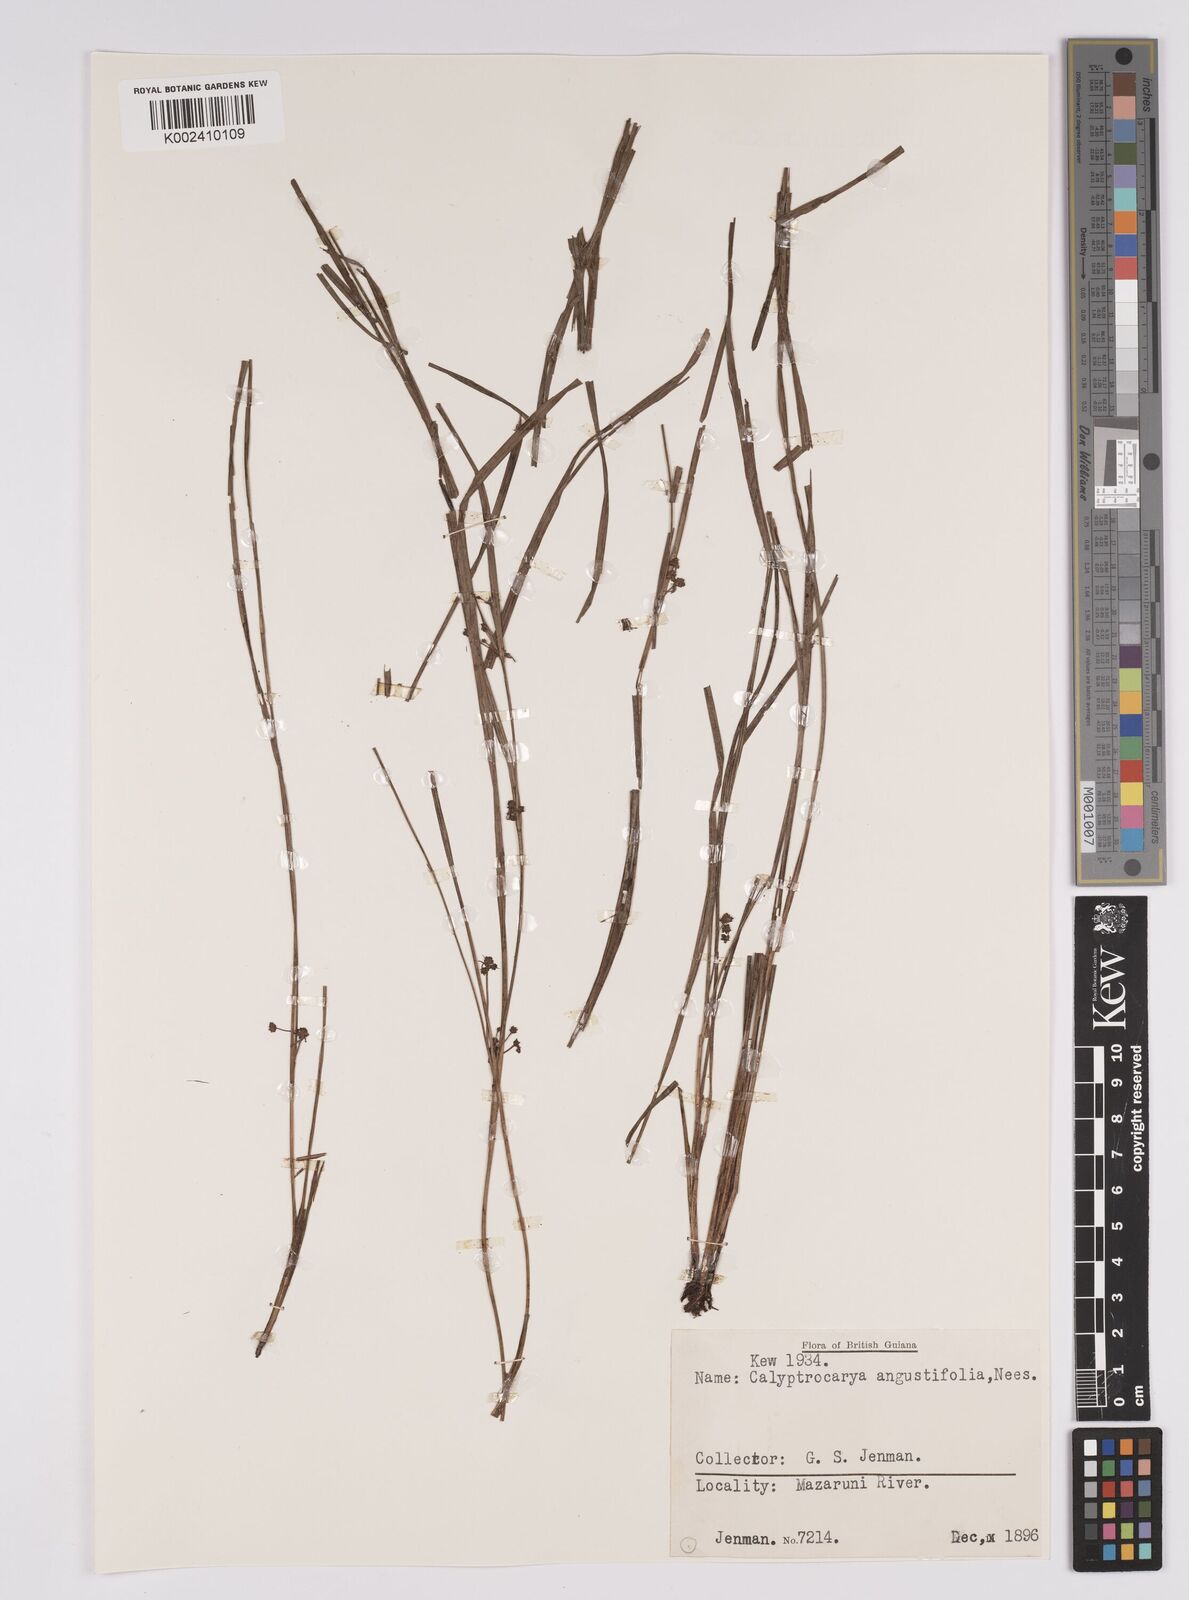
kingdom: Plantae
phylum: Tracheophyta
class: Liliopsida
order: Poales
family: Cyperaceae
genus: Calyptrocarya
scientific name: Calyptrocarya glomerulata
